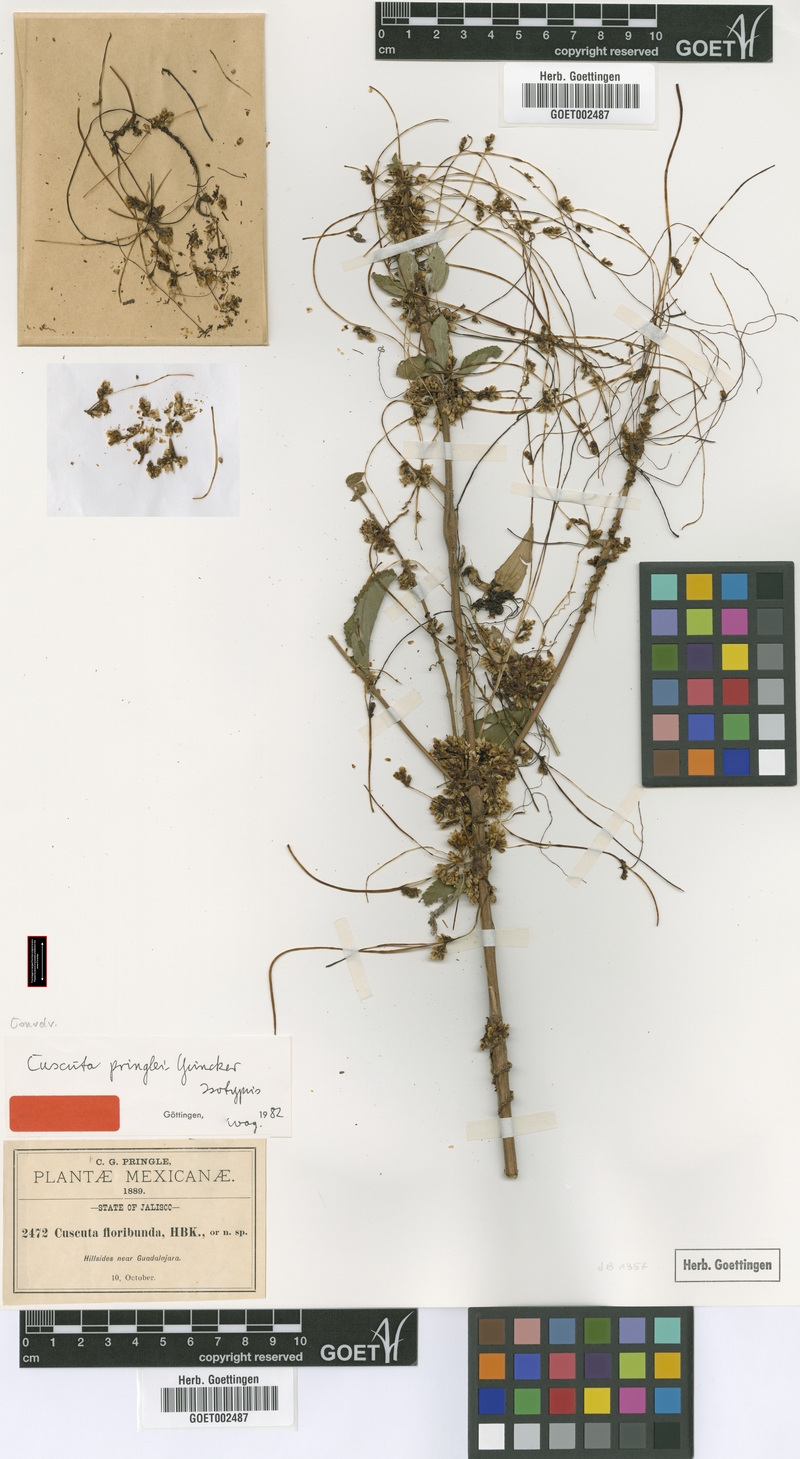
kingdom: Plantae
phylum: Tracheophyta
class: Magnoliopsida
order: Solanales
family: Convolvulaceae
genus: Cuscuta
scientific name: Cuscuta strobilacea
